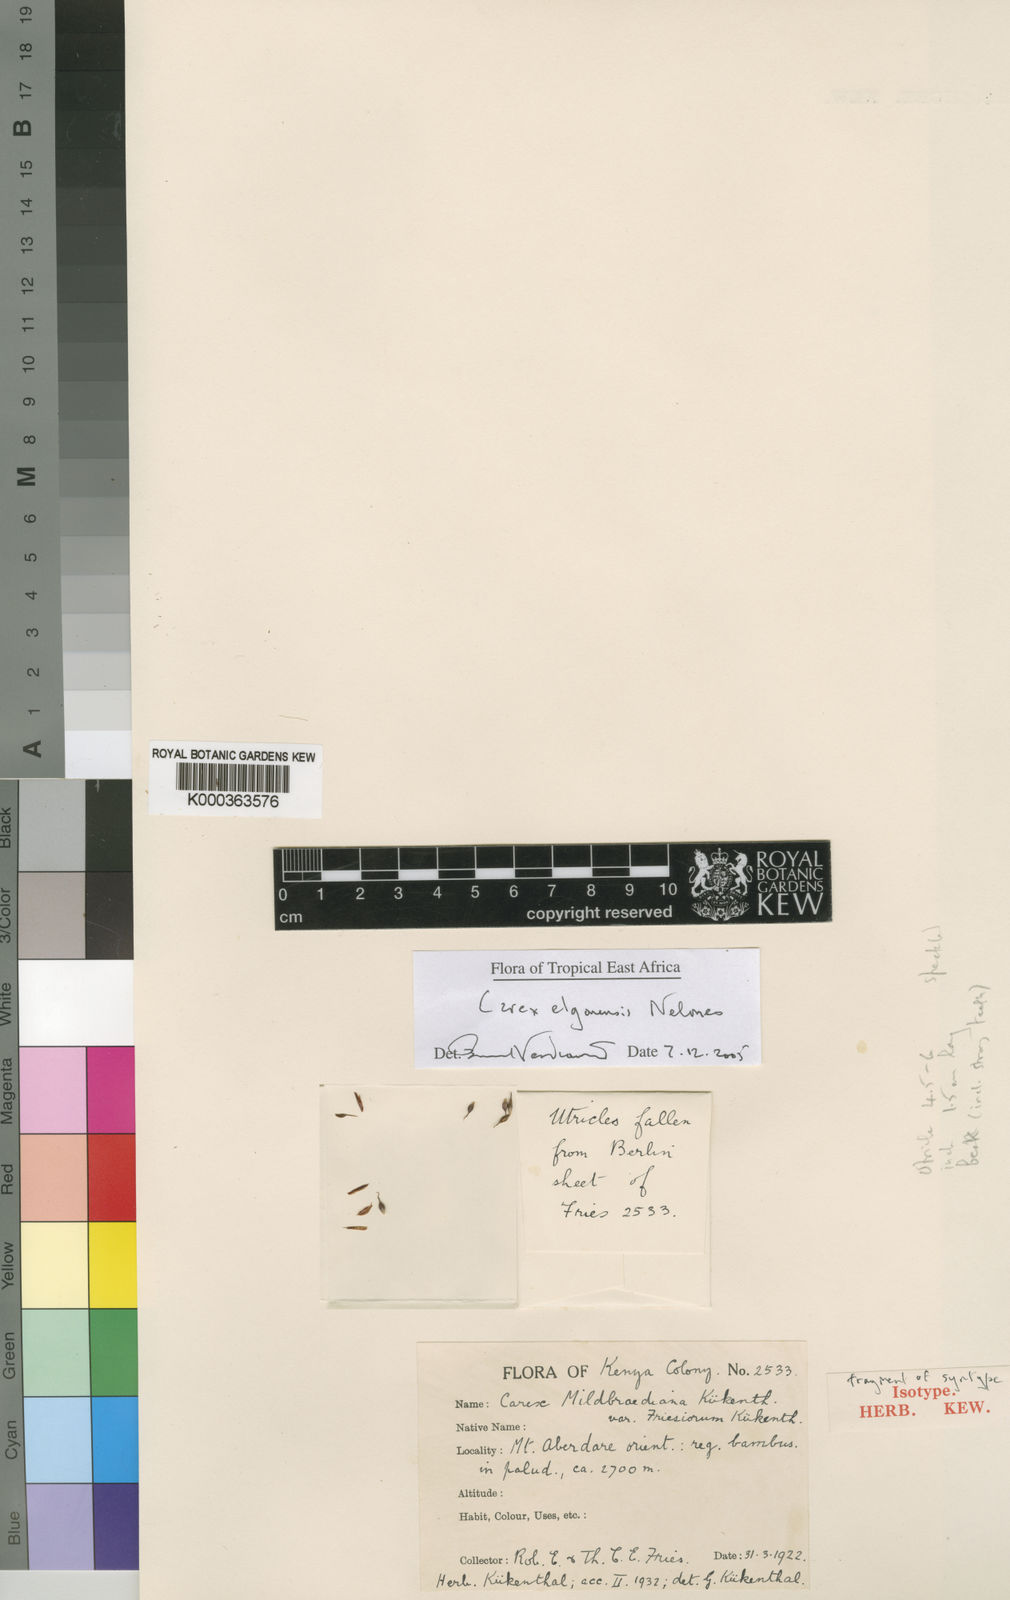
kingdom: Plantae
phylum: Tracheophyta
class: Liliopsida
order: Poales
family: Cyperaceae
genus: Carex
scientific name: Carex elgonensis
